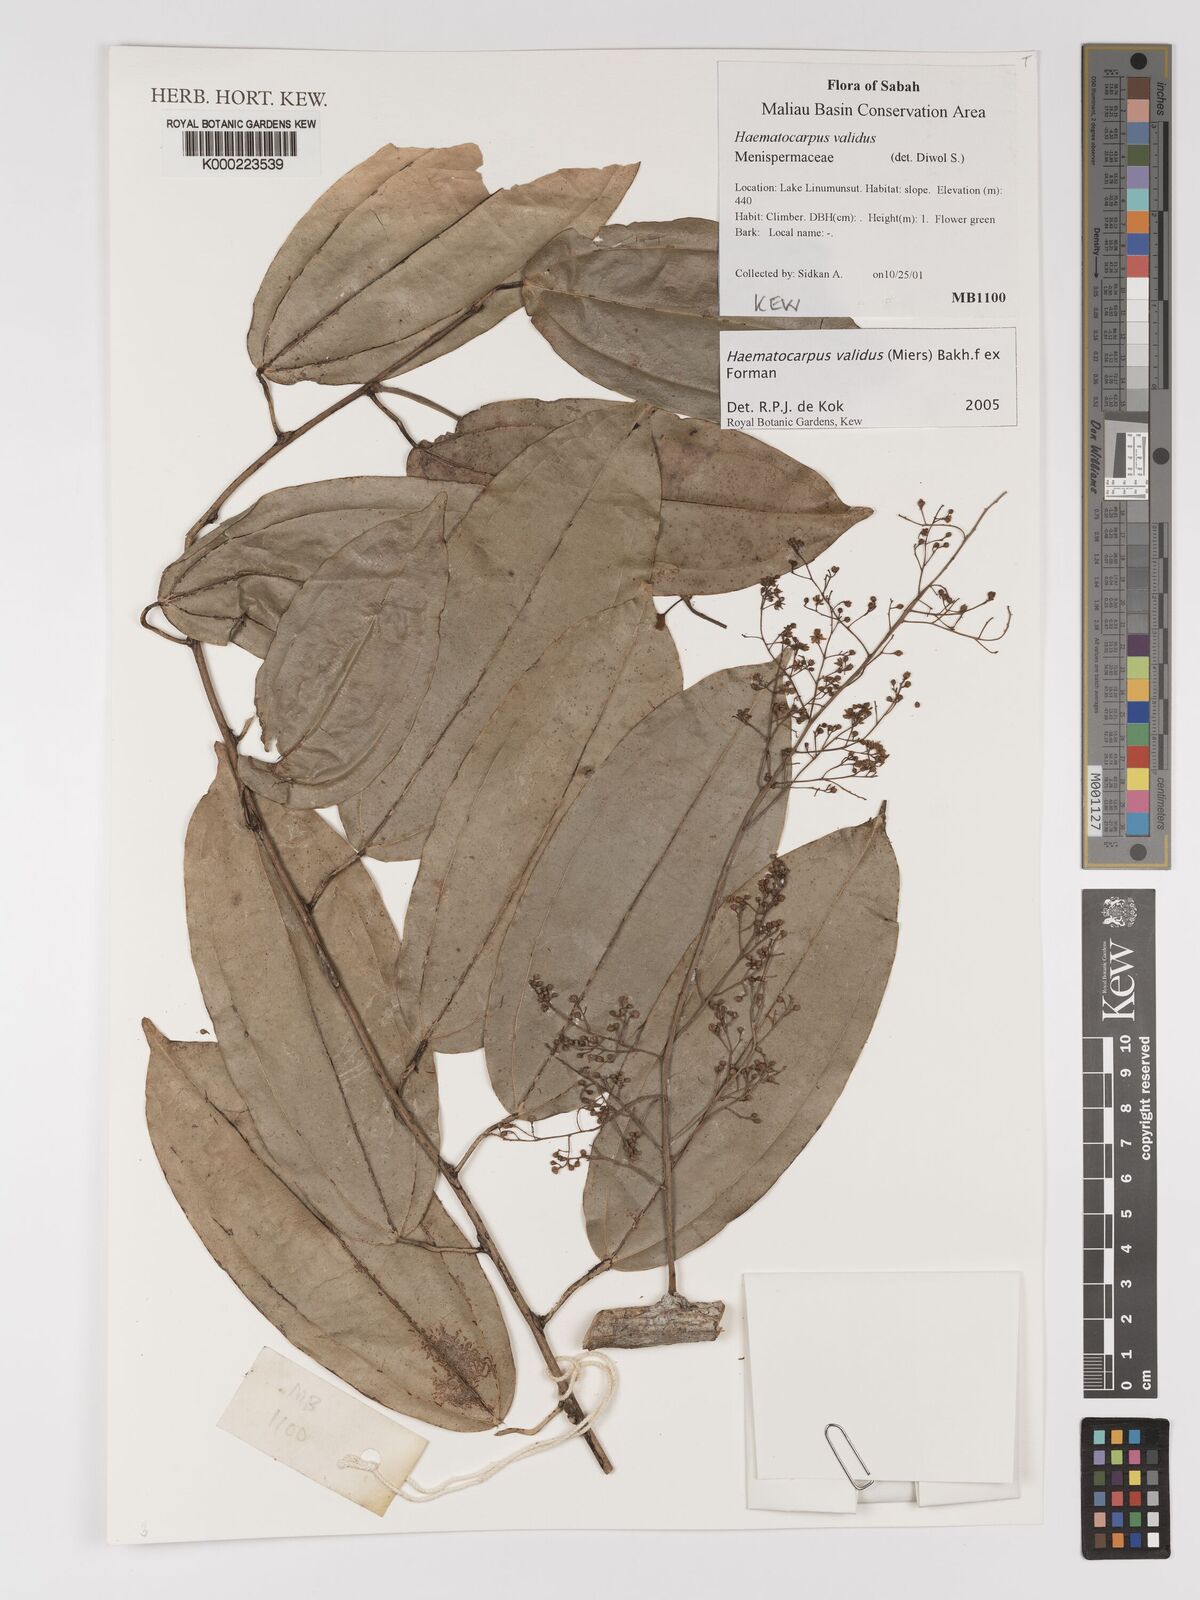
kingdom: Plantae
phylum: Tracheophyta
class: Magnoliopsida
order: Ranunculales
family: Menispermaceae
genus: Haematocarpus
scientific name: Haematocarpus validus
